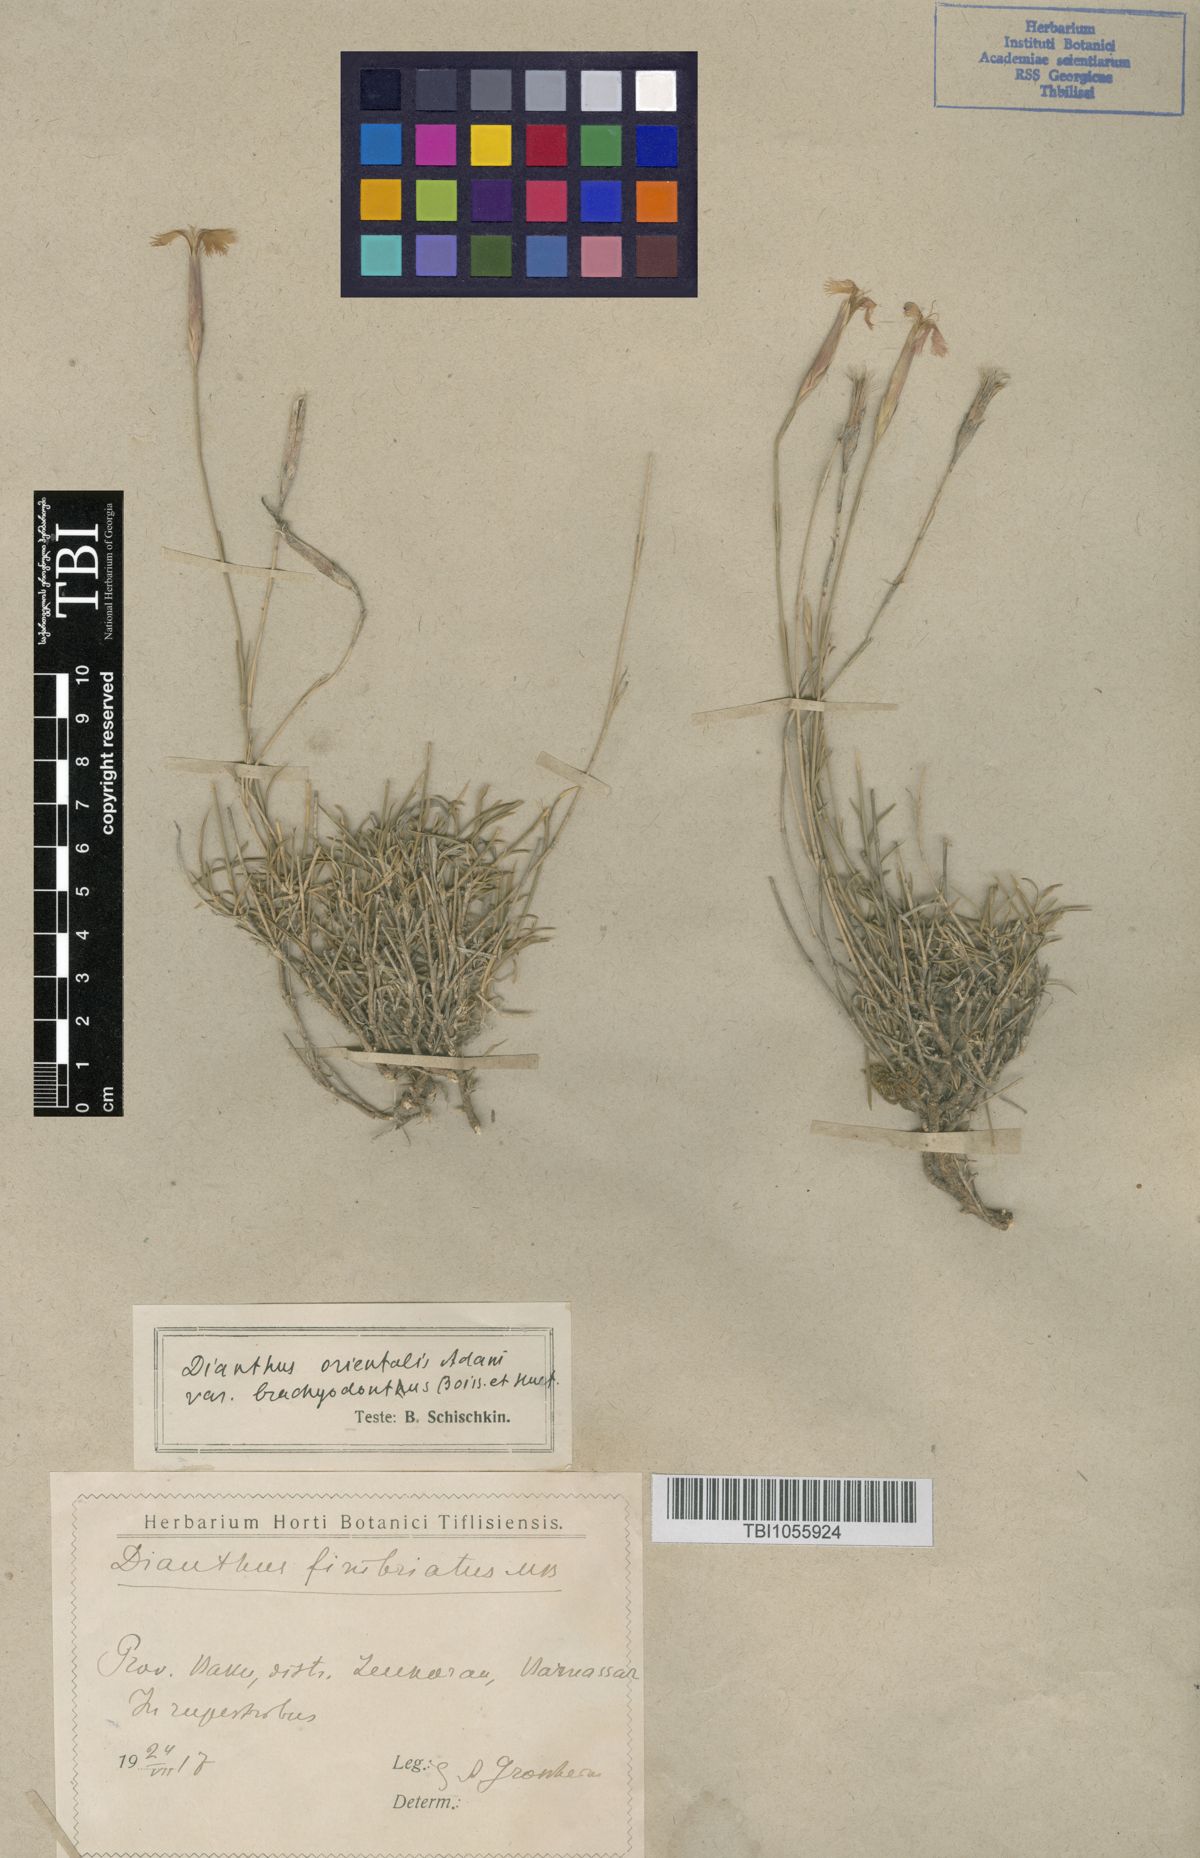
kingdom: Plantae
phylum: Tracheophyta
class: Magnoliopsida
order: Caryophyllales
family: Caryophyllaceae
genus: Dianthus
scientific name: Dianthus orientalis
